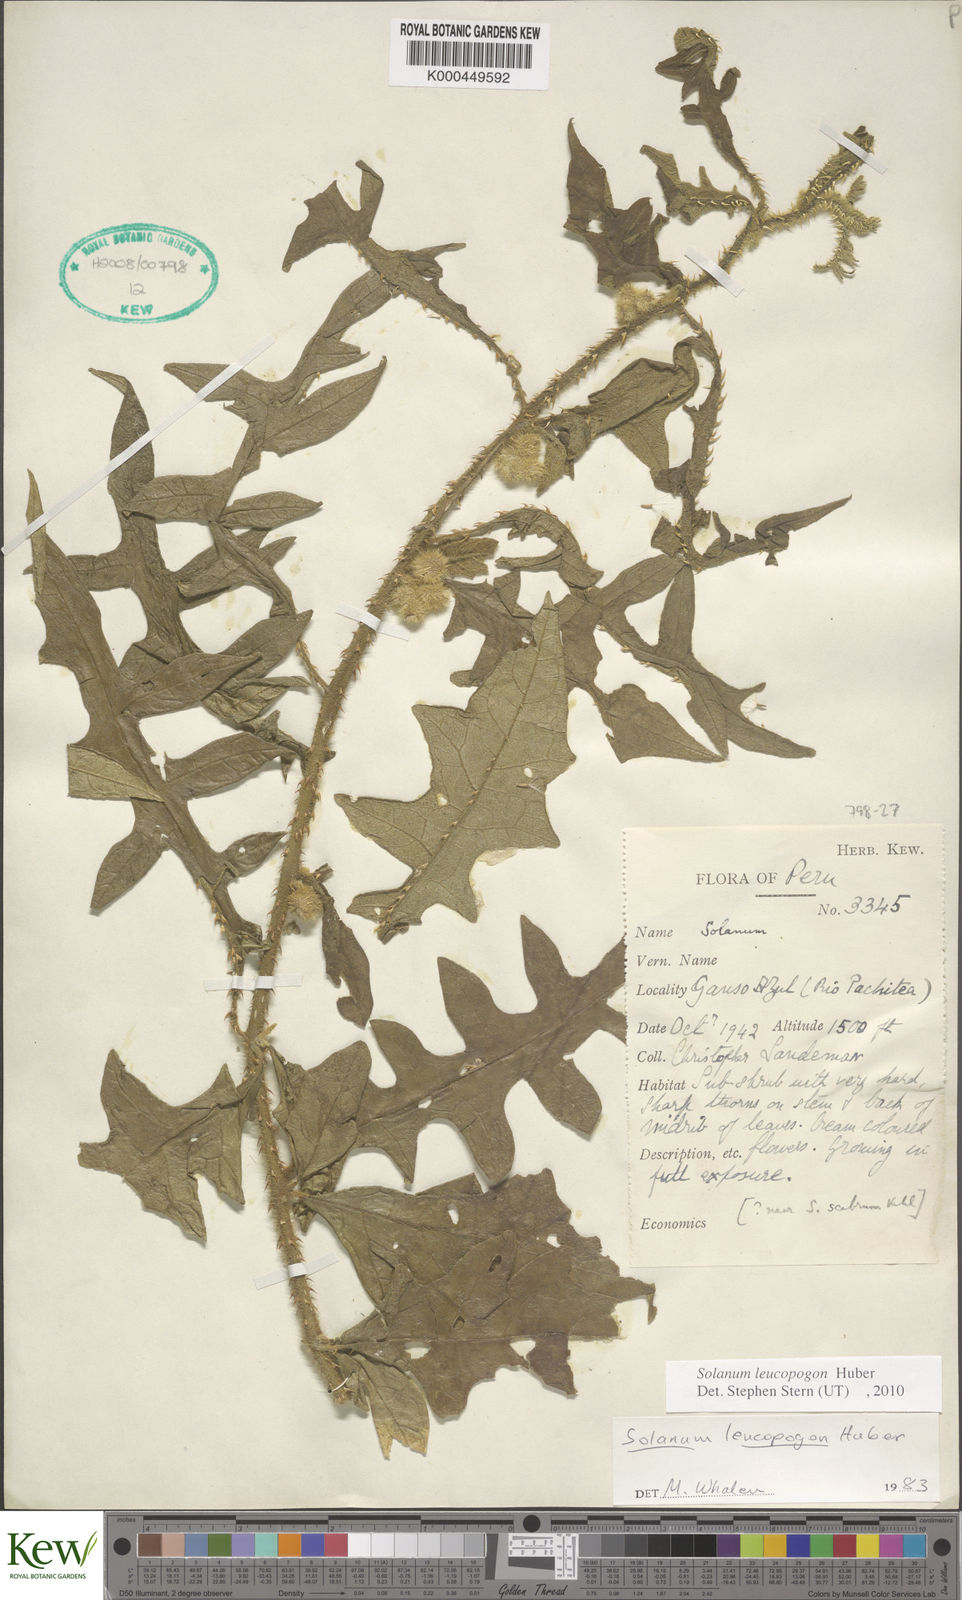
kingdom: Plantae
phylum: Tracheophyta
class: Magnoliopsida
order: Solanales
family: Solanaceae
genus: Solanum
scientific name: Solanum leucopogon
